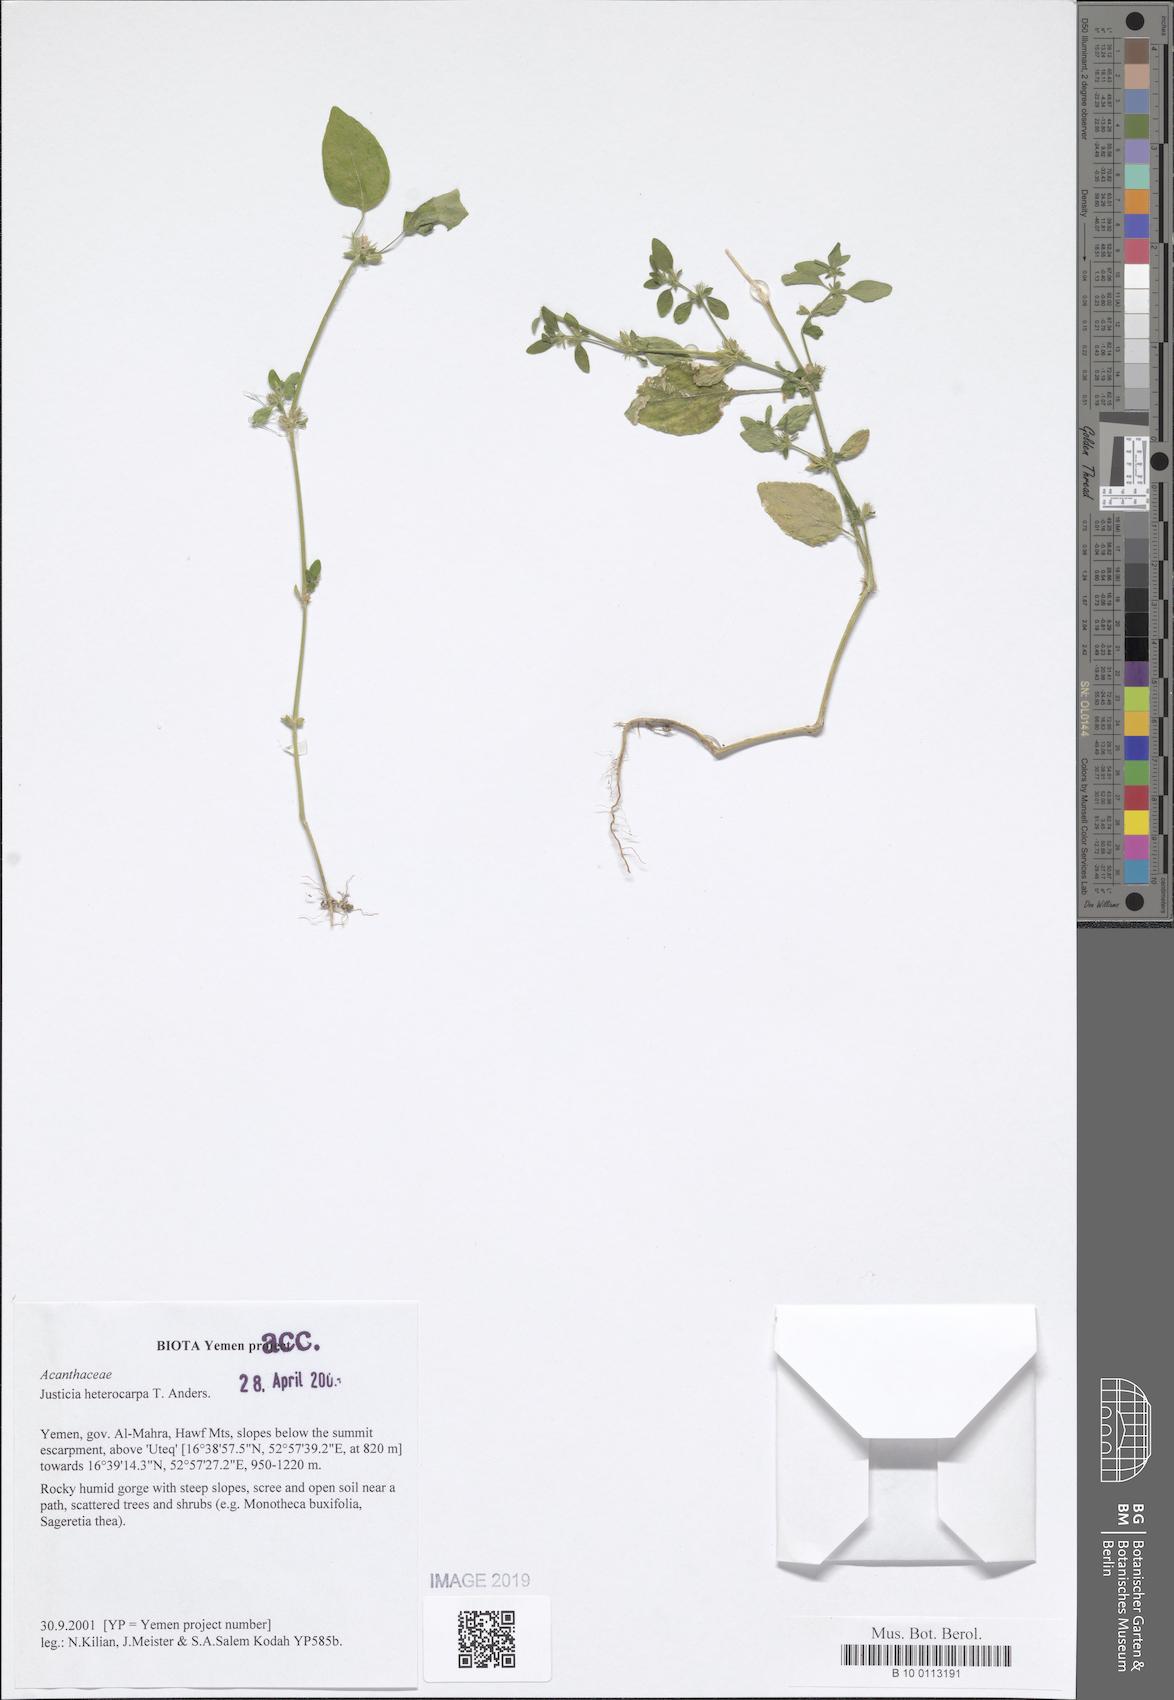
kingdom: Plantae
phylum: Tracheophyta
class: Magnoliopsida
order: Lamiales
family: Acanthaceae
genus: Justicia
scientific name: Justicia heterocarpa
